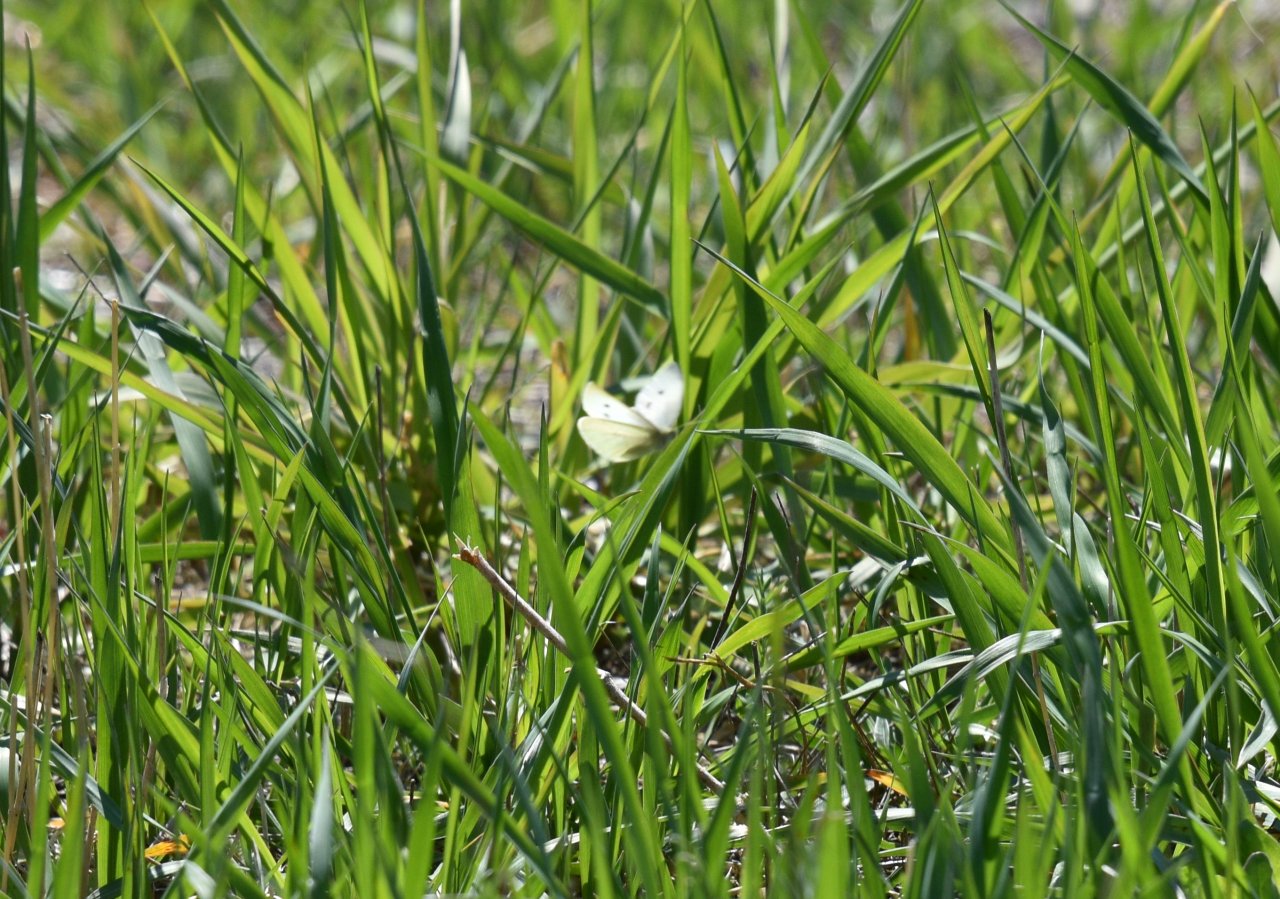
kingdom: Animalia
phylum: Arthropoda
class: Insecta
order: Lepidoptera
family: Pieridae
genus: Pieris
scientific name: Pieris rapae
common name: Cabbage White
